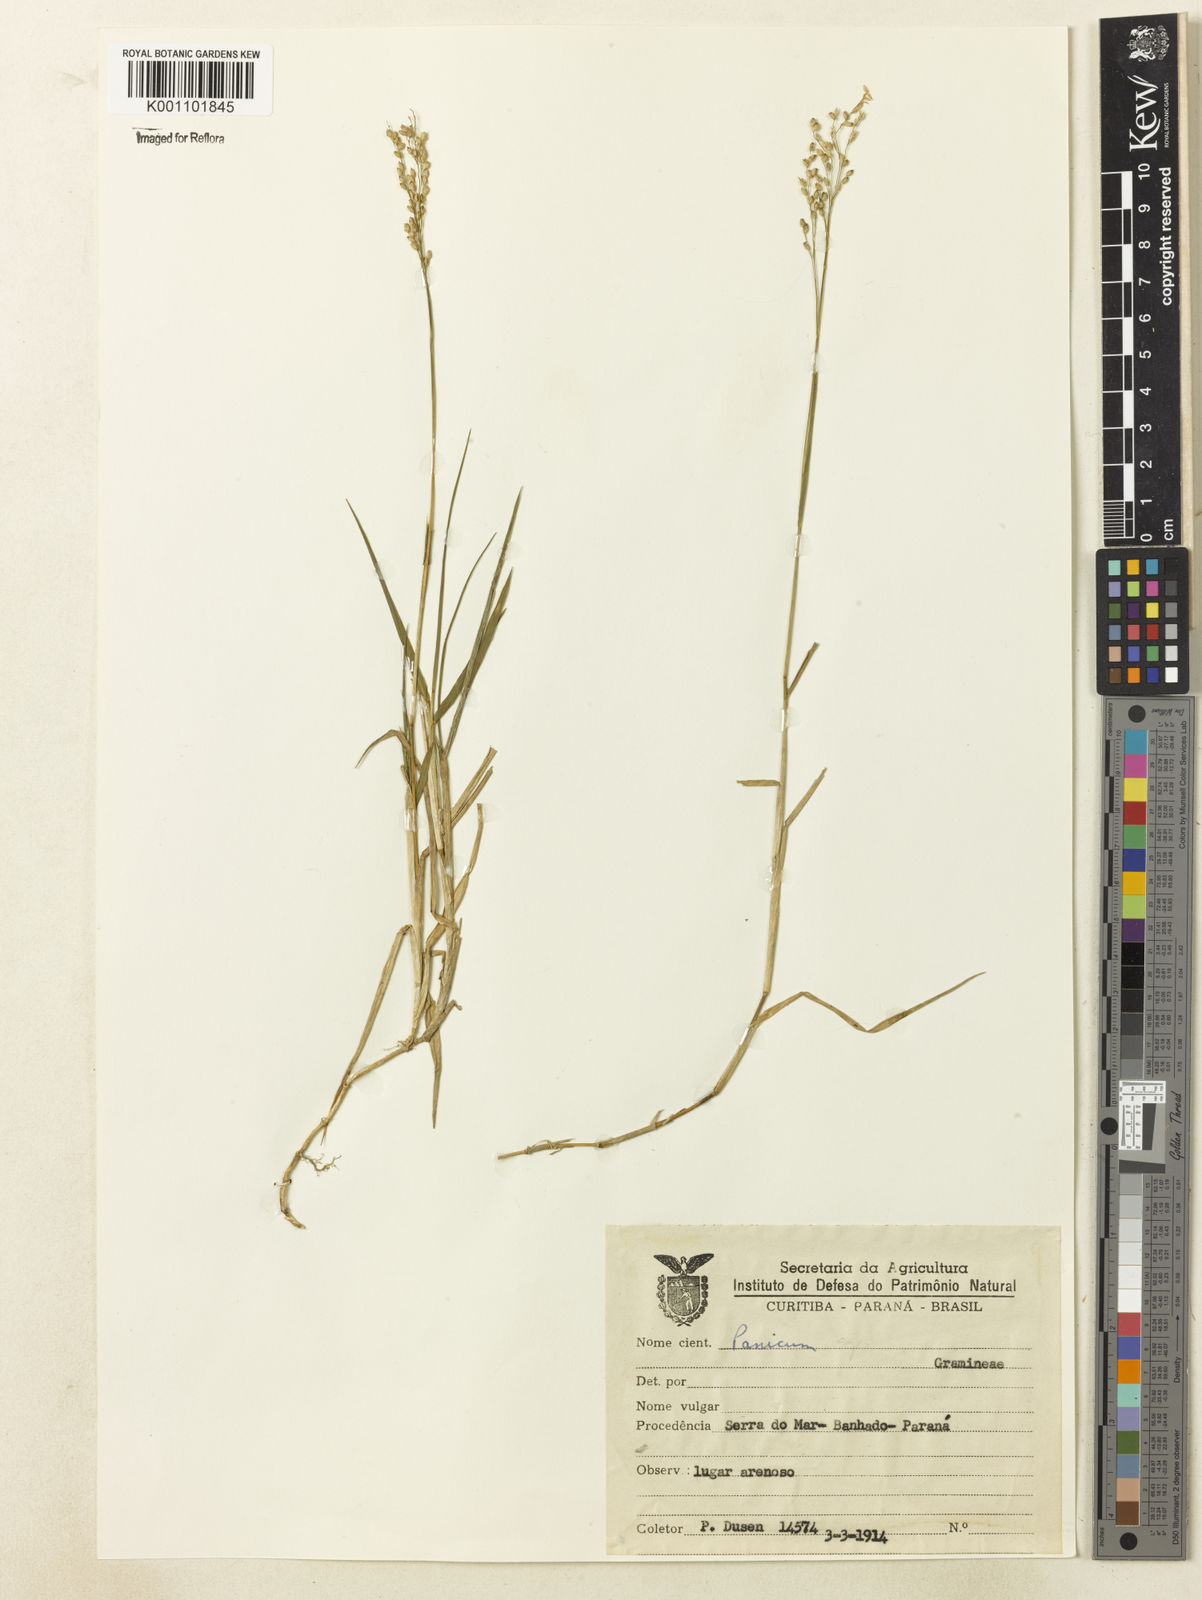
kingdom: Plantae
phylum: Tracheophyta
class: Liliopsida
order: Poales
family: Poaceae
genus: Panicum
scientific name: Panicum gouinii
